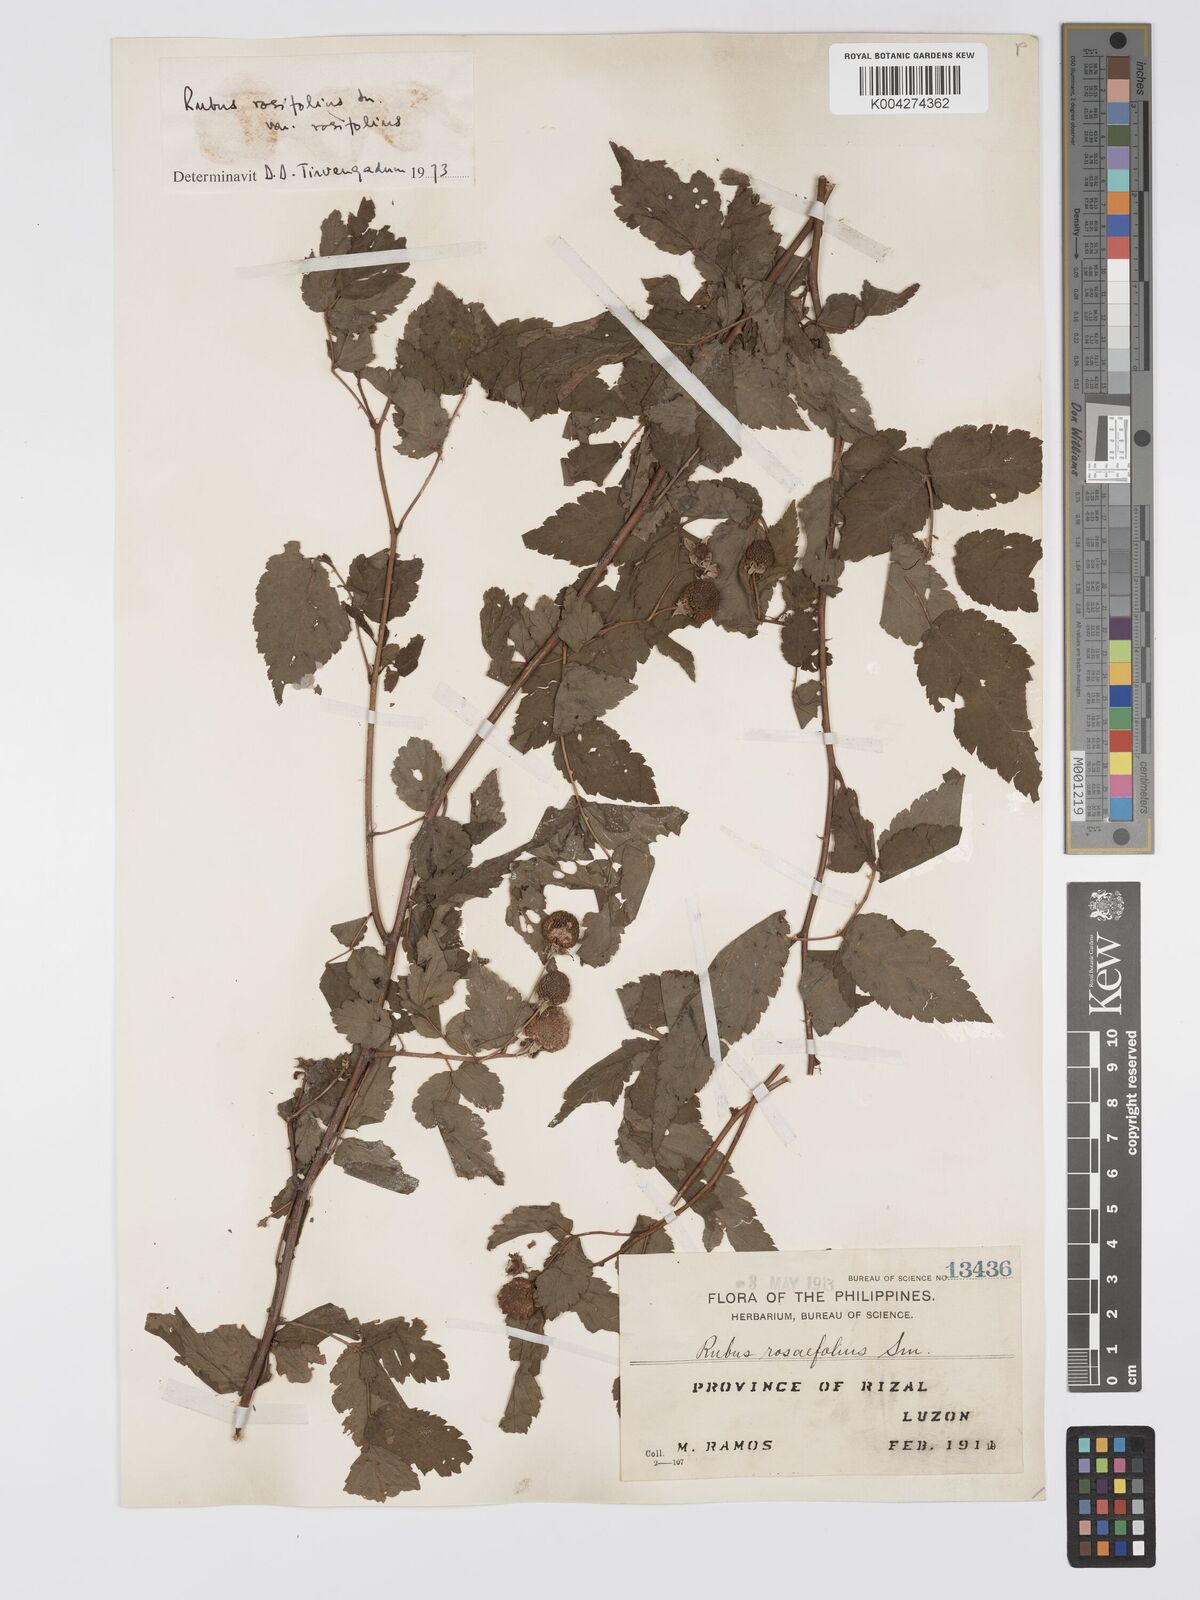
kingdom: Plantae
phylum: Tracheophyta
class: Magnoliopsida
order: Rosales
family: Rosaceae
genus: Rubus
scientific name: Rubus
